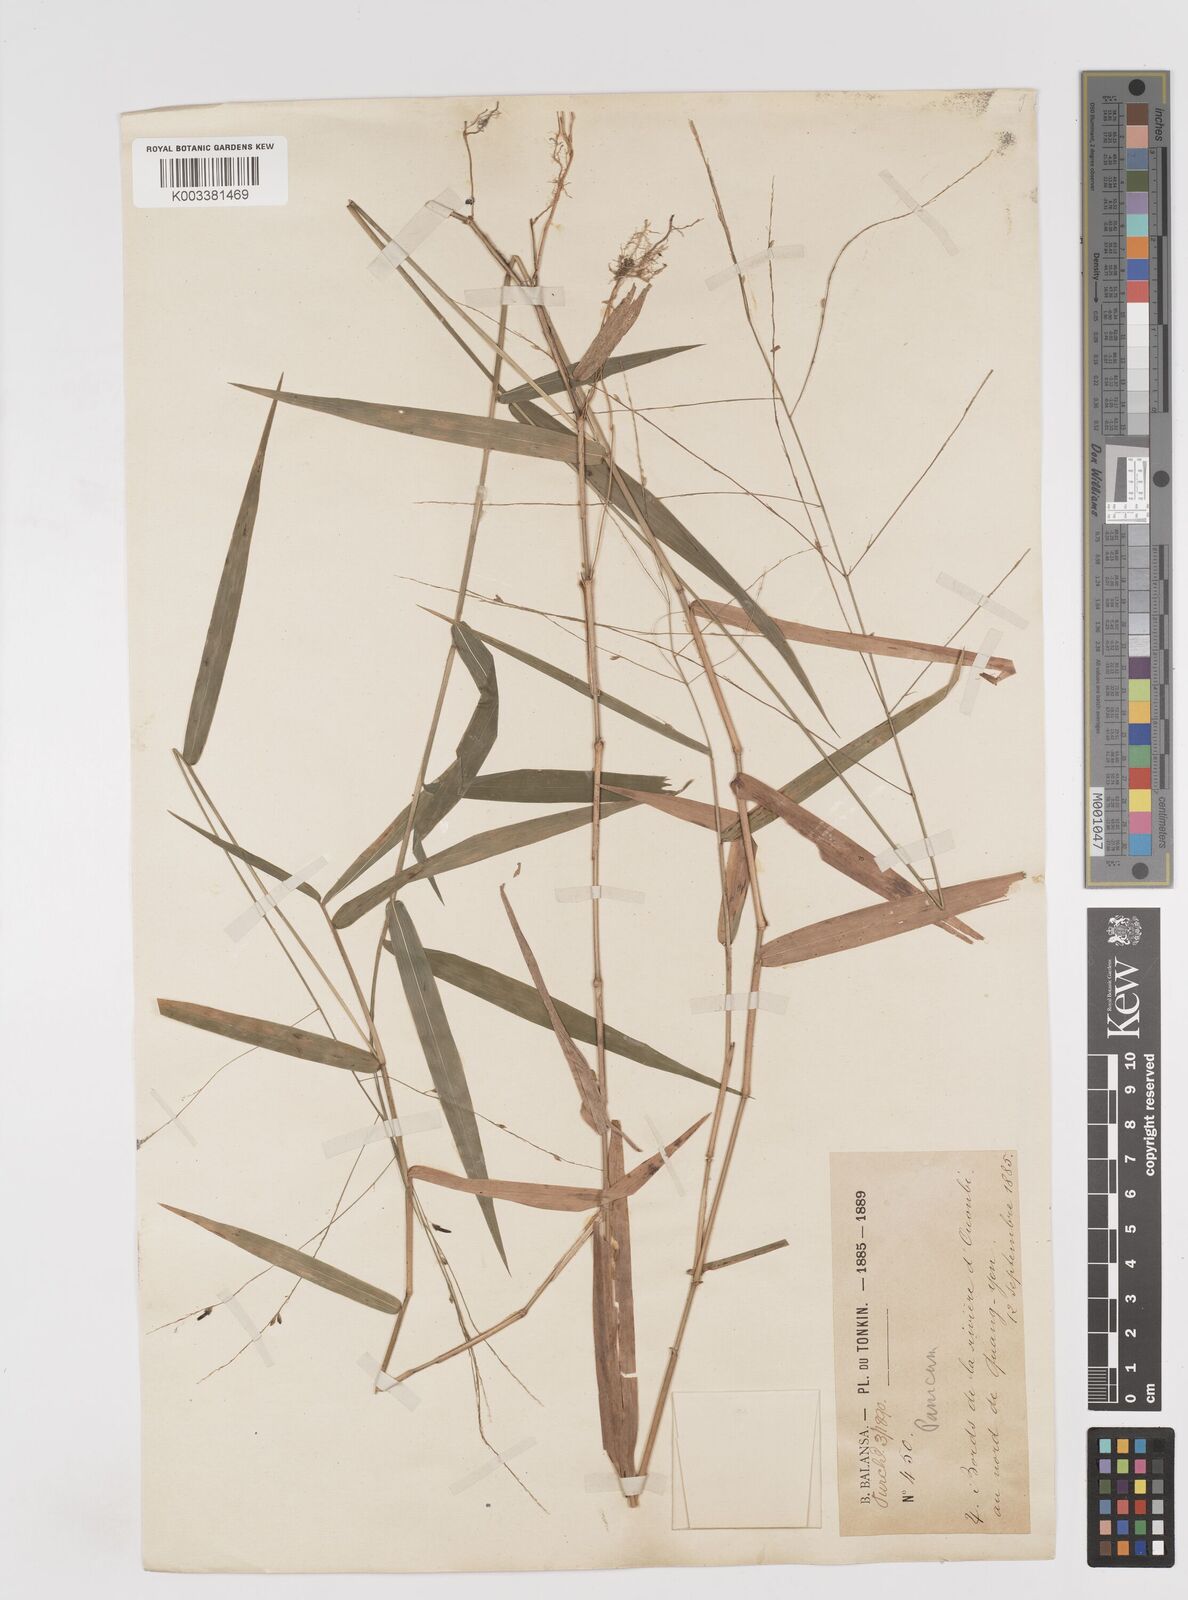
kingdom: Plantae
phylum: Tracheophyta
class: Liliopsida
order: Poales
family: Poaceae
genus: Ottochloa
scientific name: Ottochloa nodosa
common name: Slender-panic grass
